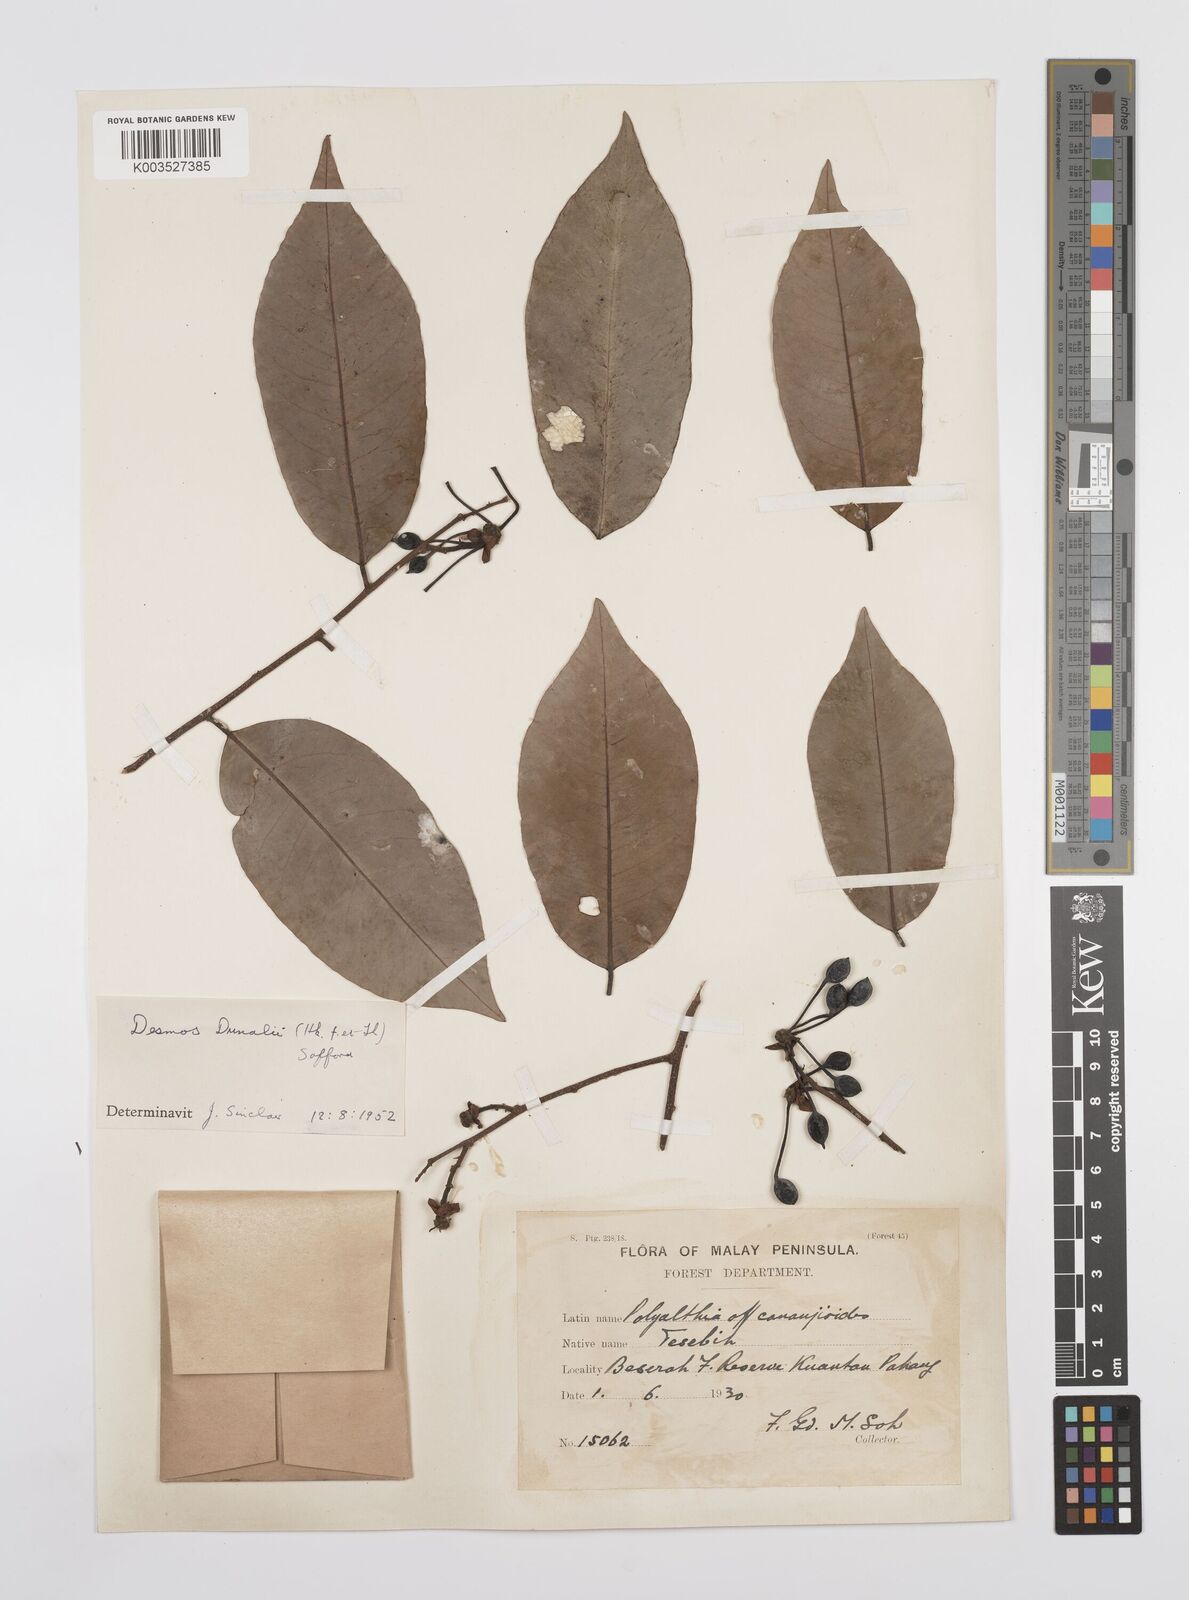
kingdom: Plantae
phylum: Tracheophyta
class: Magnoliopsida
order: Magnoliales
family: Annonaceae
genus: Desmos
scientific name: Desmos dunalii
